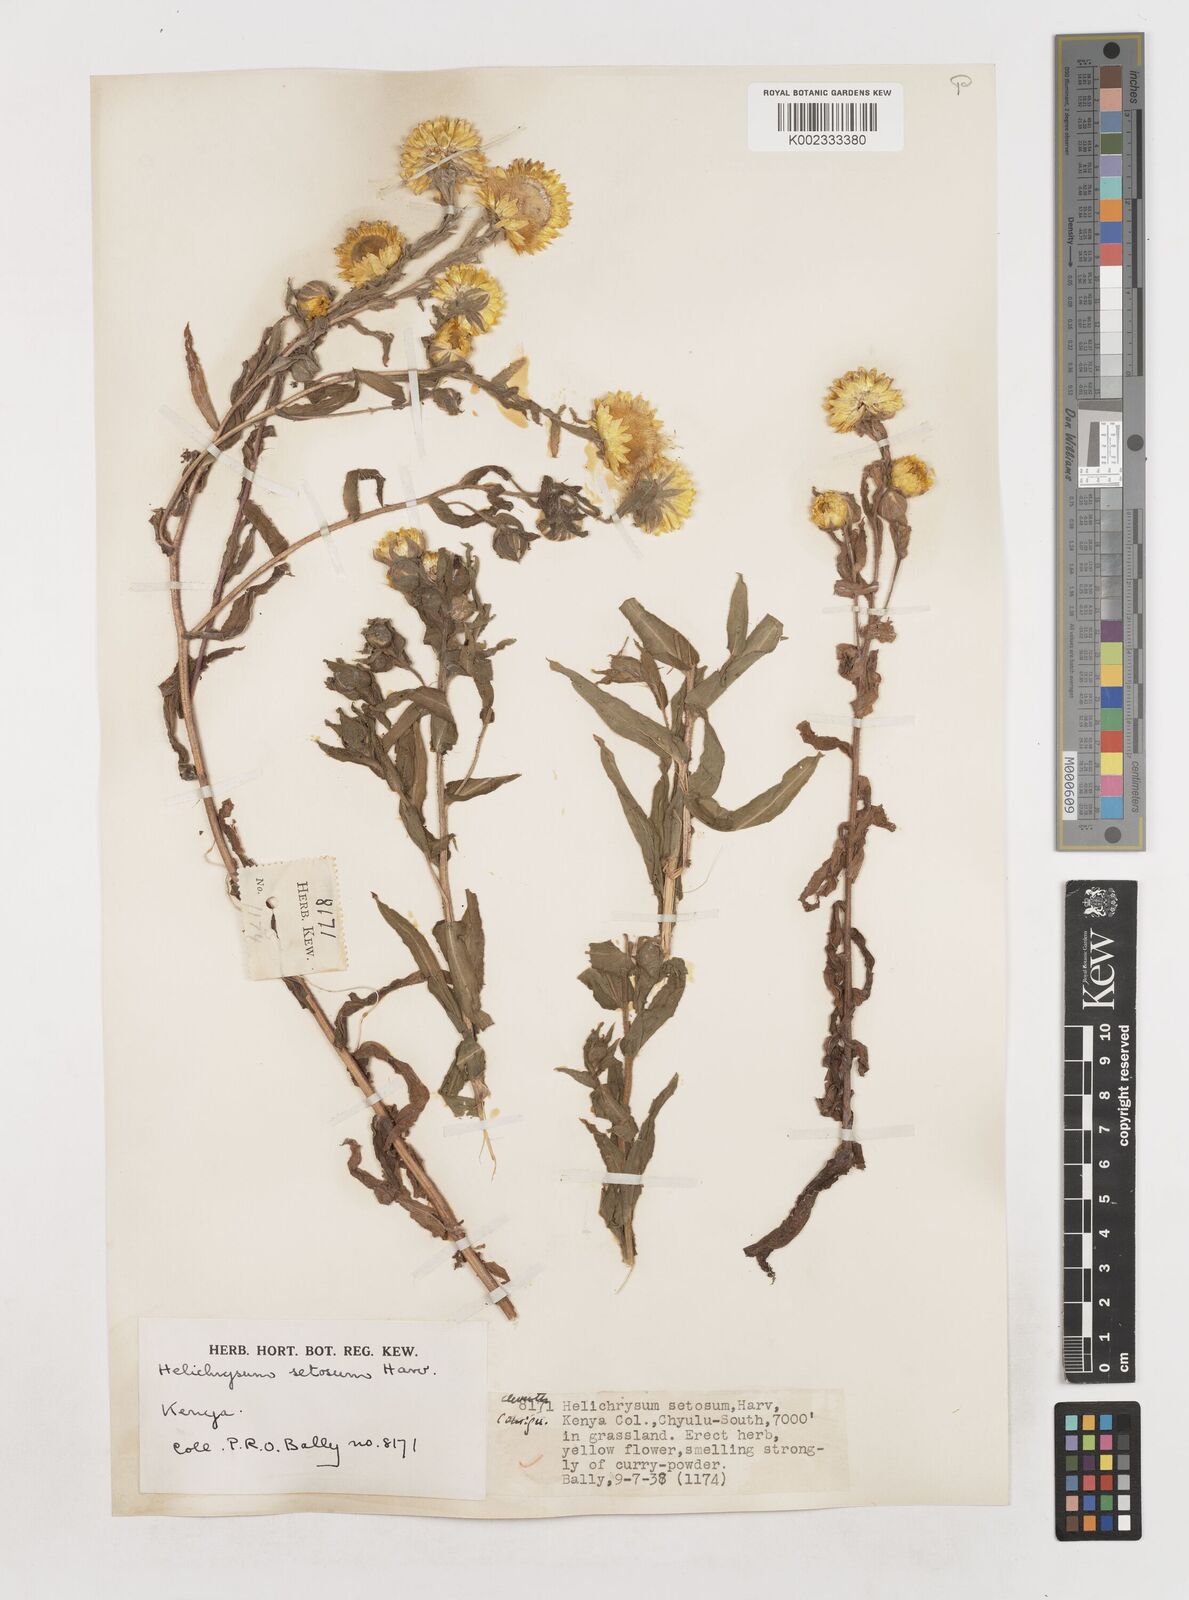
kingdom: Plantae
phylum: Tracheophyta
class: Magnoliopsida
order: Asterales
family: Asteraceae
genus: Helichrysum
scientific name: Helichrysum setosum
